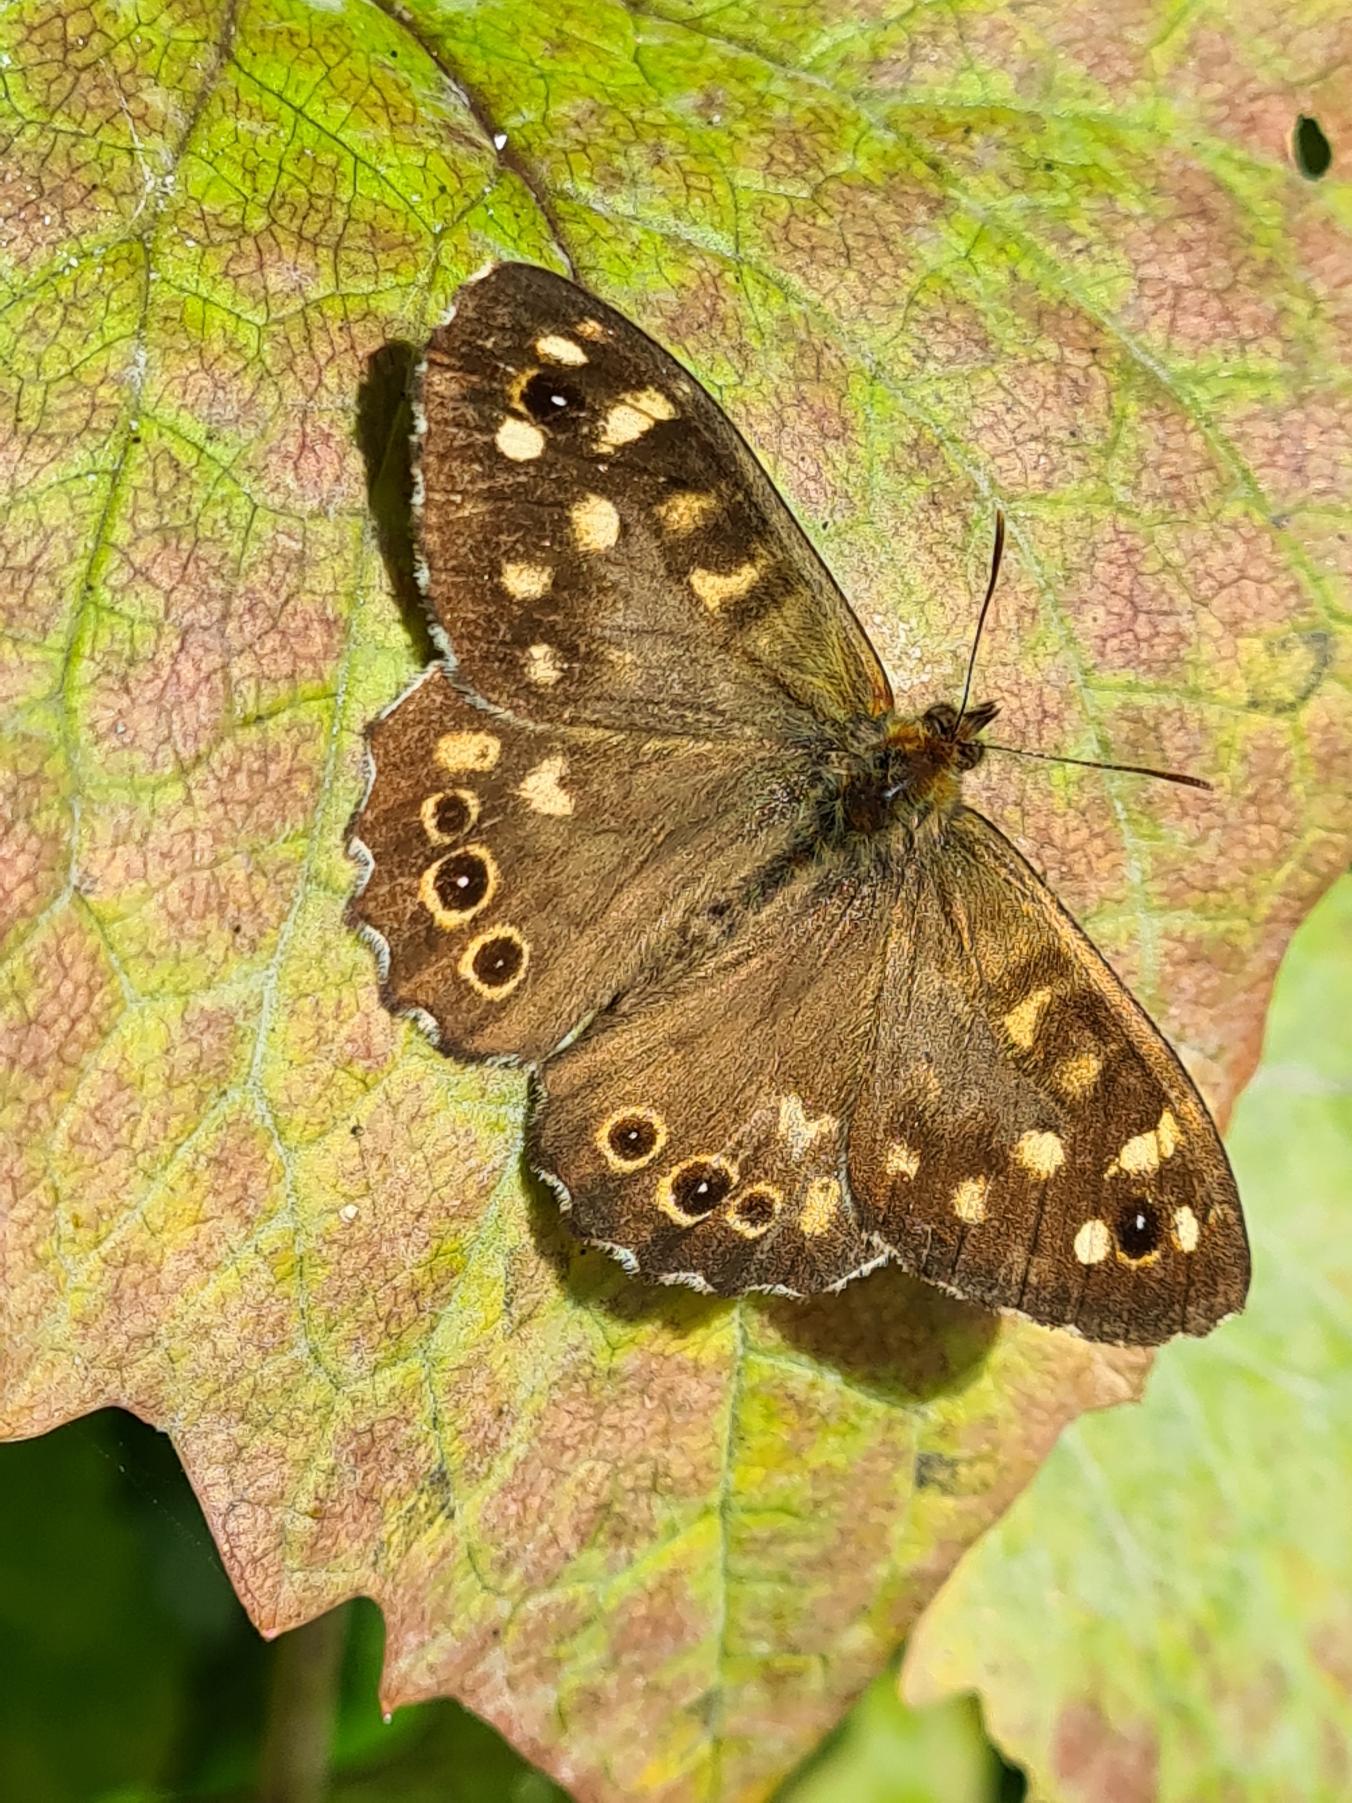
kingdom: Animalia
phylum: Arthropoda
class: Insecta
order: Lepidoptera
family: Nymphalidae
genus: Pararge
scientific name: Pararge aegeria
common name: Skovrandøje
